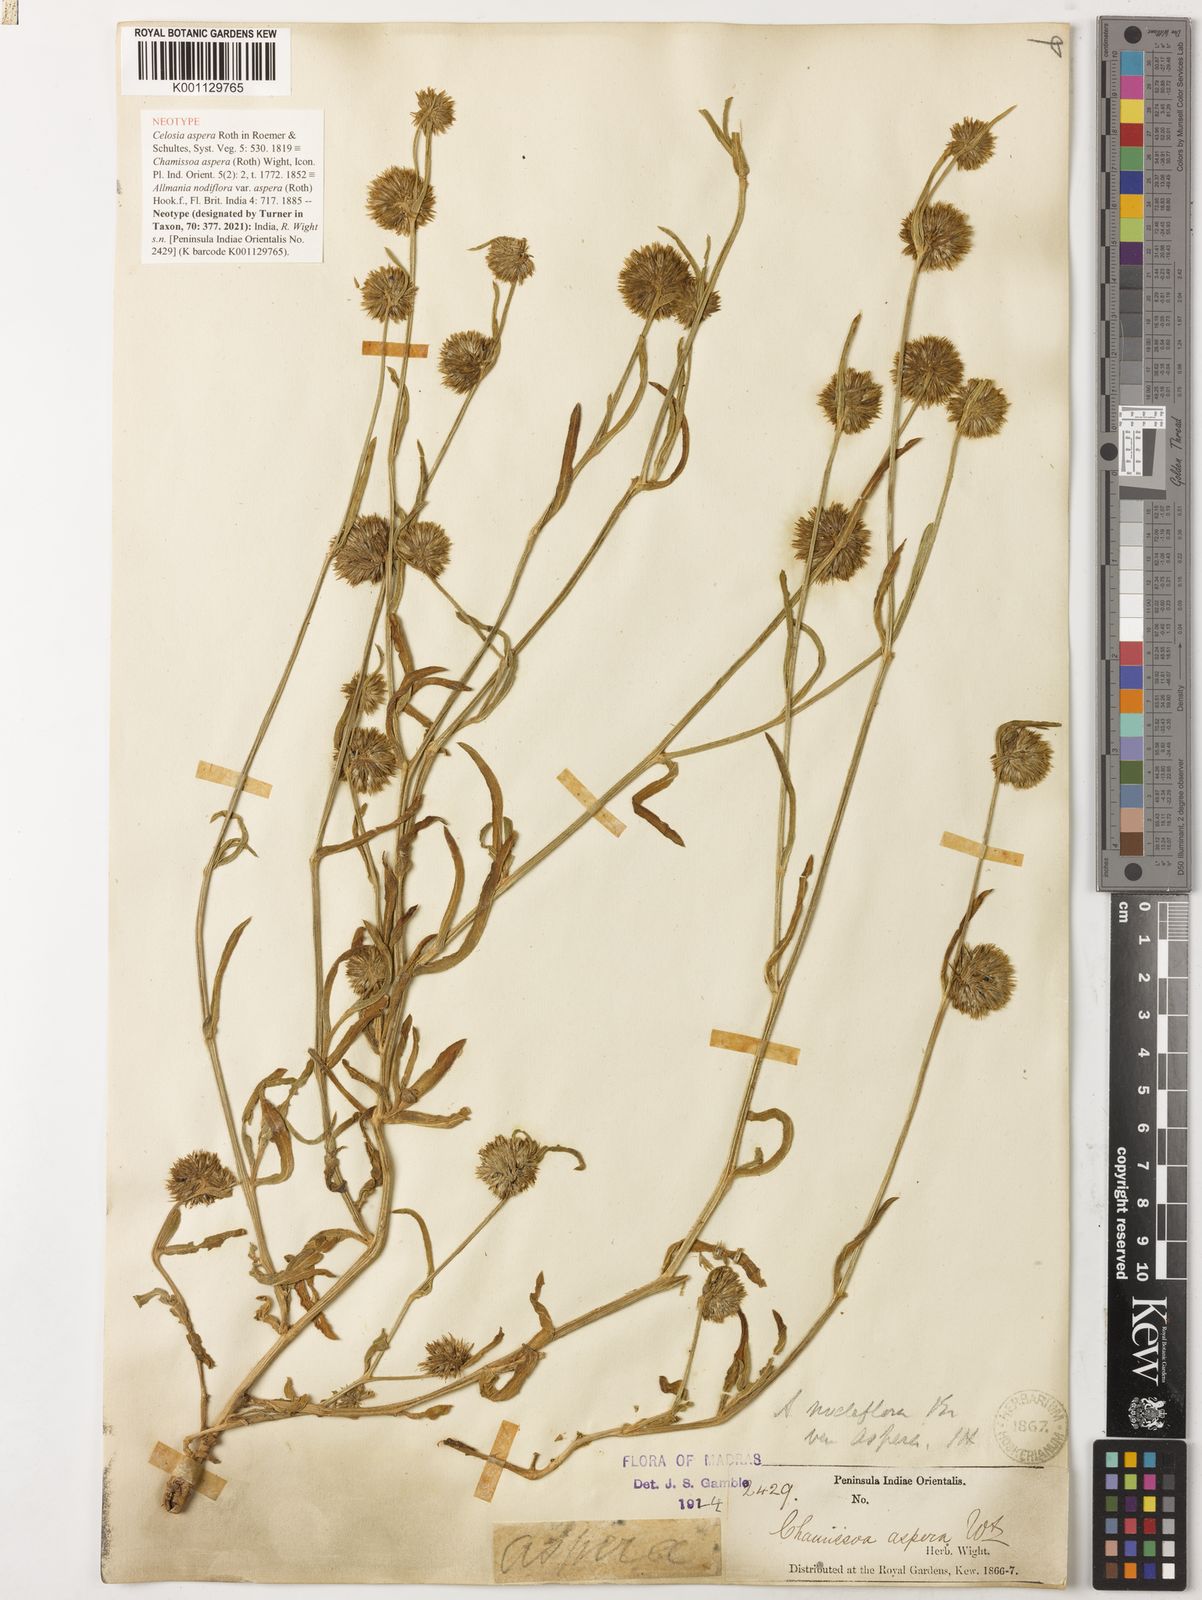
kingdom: Plantae
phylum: Tracheophyta
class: Magnoliopsida
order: Caryophyllales
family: Amaranthaceae
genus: Allmania
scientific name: Allmania nodiflora
